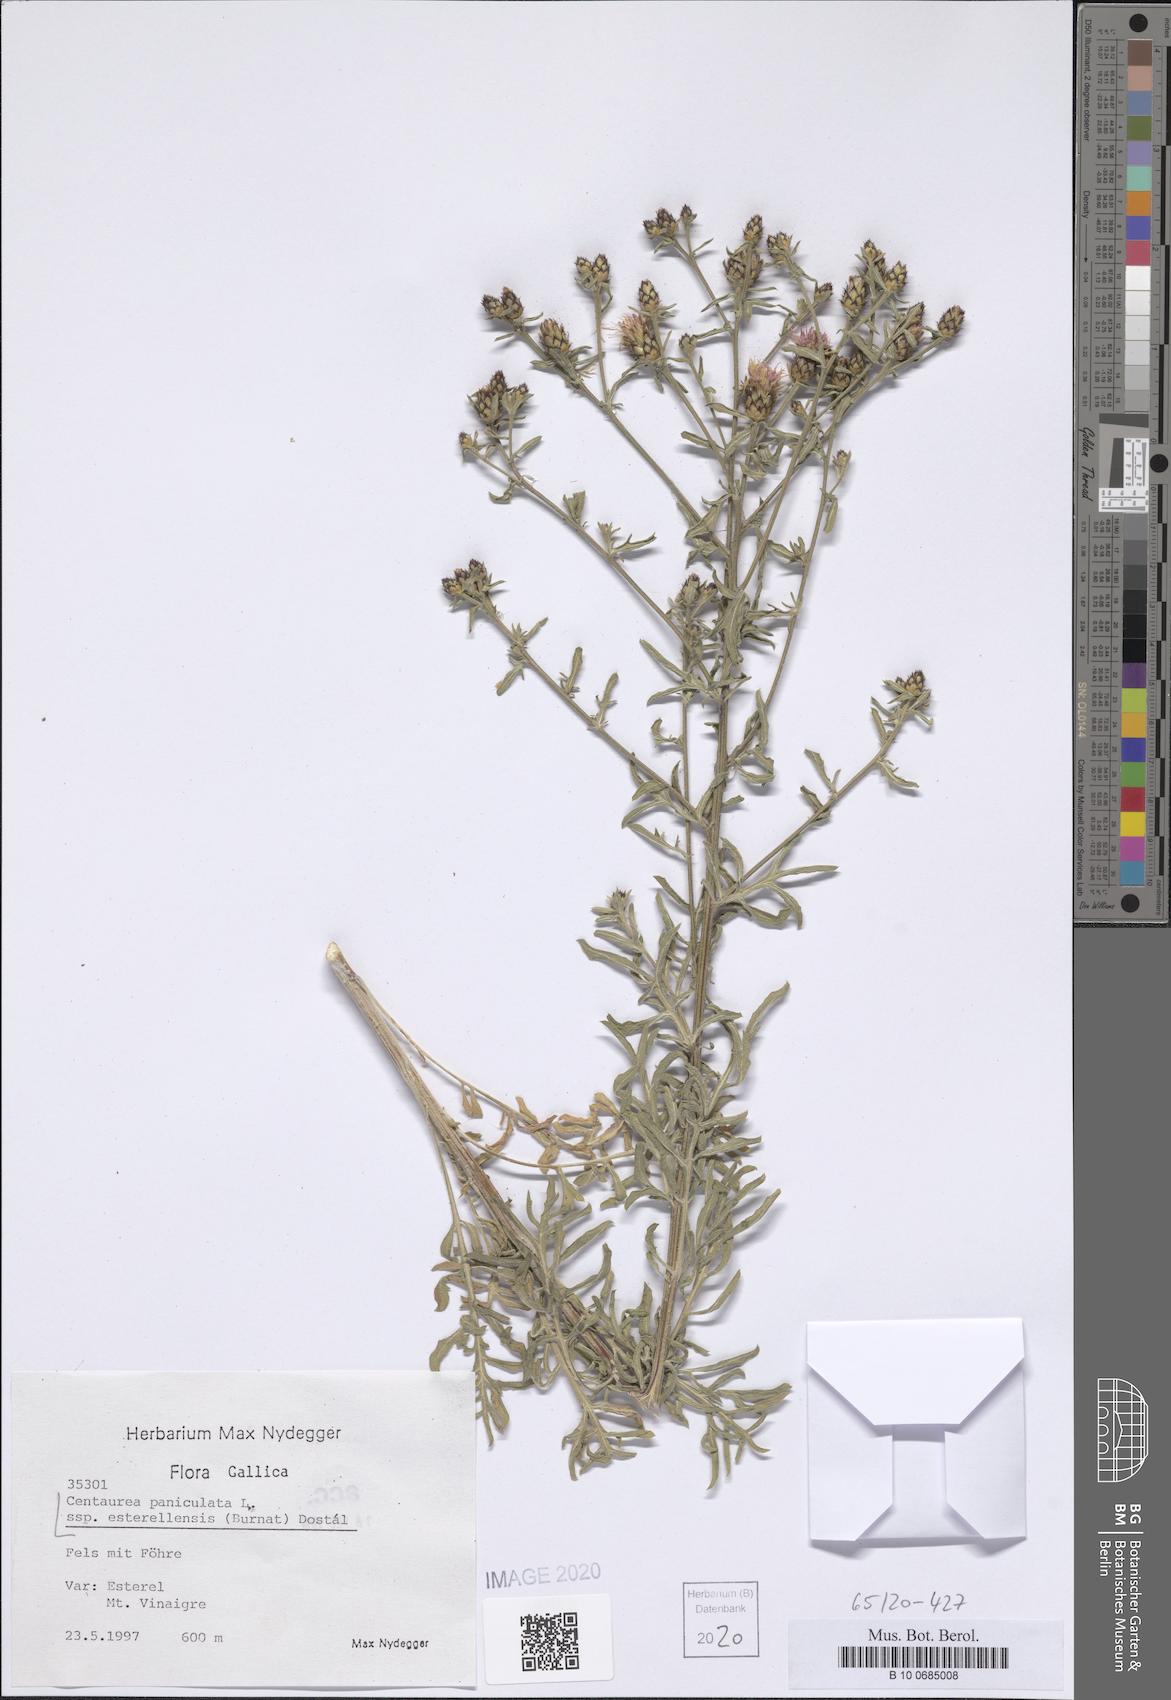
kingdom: Plantae
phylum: Tracheophyta
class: Magnoliopsida
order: Asterales
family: Asteraceae
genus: Centaurea
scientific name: Centaurea paniculata
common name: Jersey knapweed
